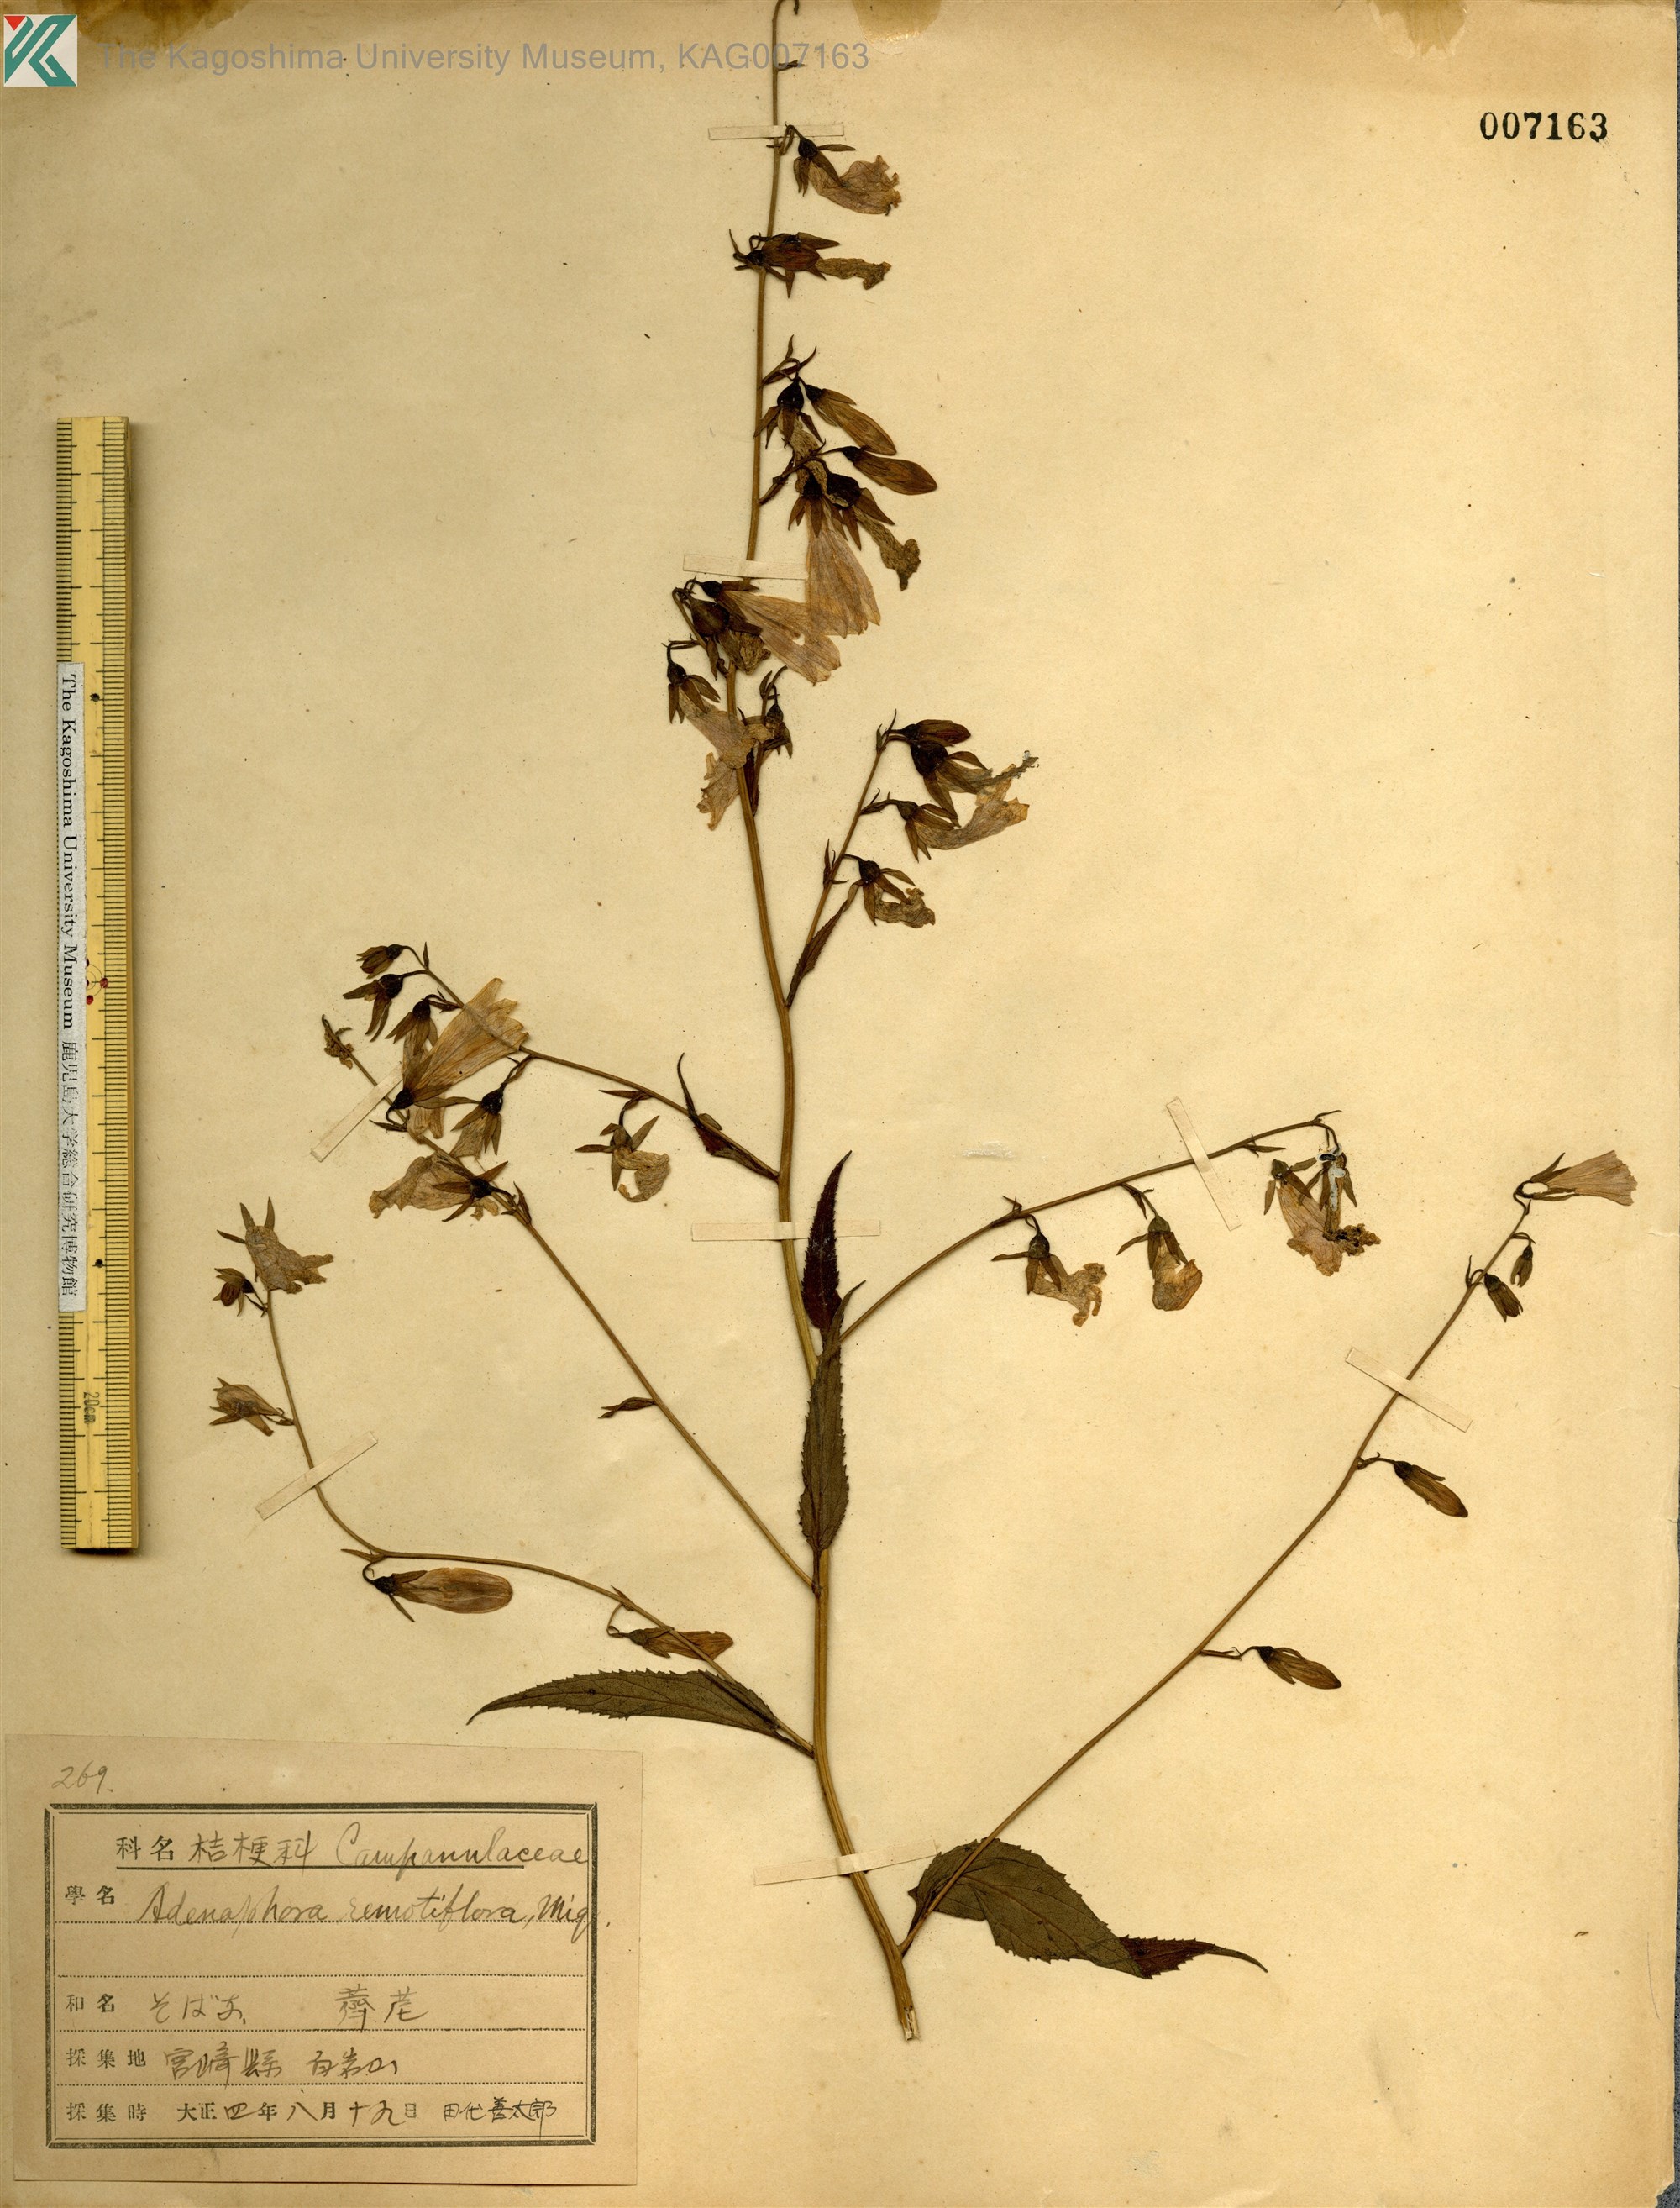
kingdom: Plantae
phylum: Tracheophyta
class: Magnoliopsida
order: Asterales
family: Campanulaceae
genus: Adenophora
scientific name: Adenophora remotiflora
